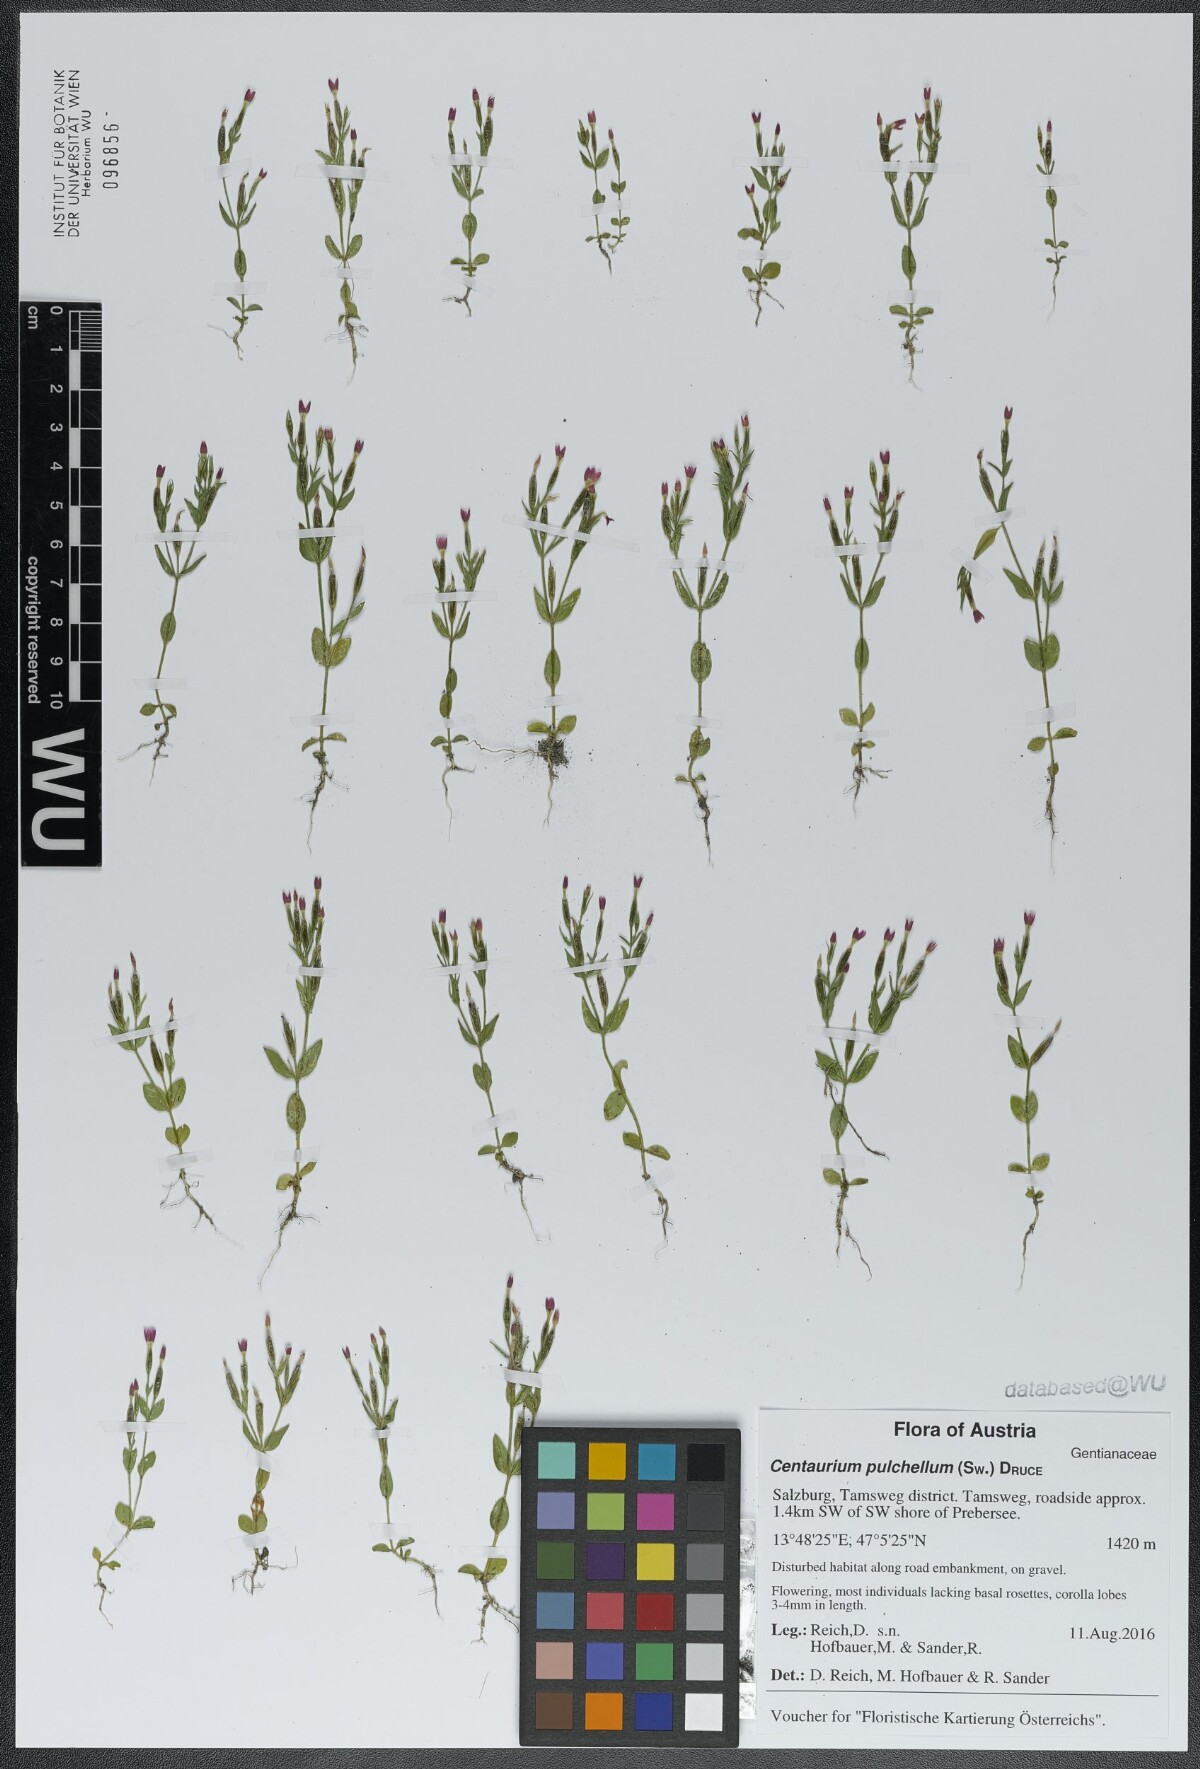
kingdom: Plantae
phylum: Tracheophyta
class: Magnoliopsida
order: Gentianales
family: Gentianaceae
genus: Centaurium
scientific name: Centaurium pulchellum
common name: Lesser centaury
